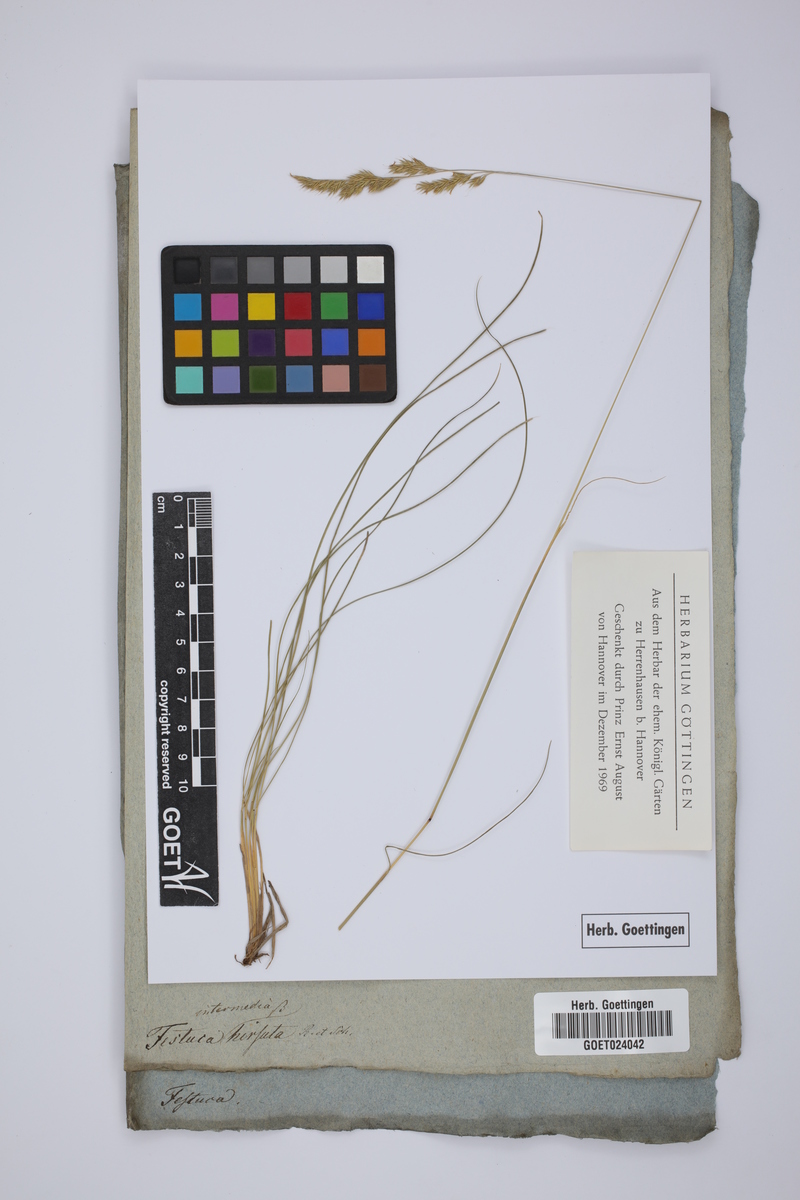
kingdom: Plantae
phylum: Tracheophyta
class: Liliopsida
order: Poales
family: Poaceae
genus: Festuca
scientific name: Festuca stricta
